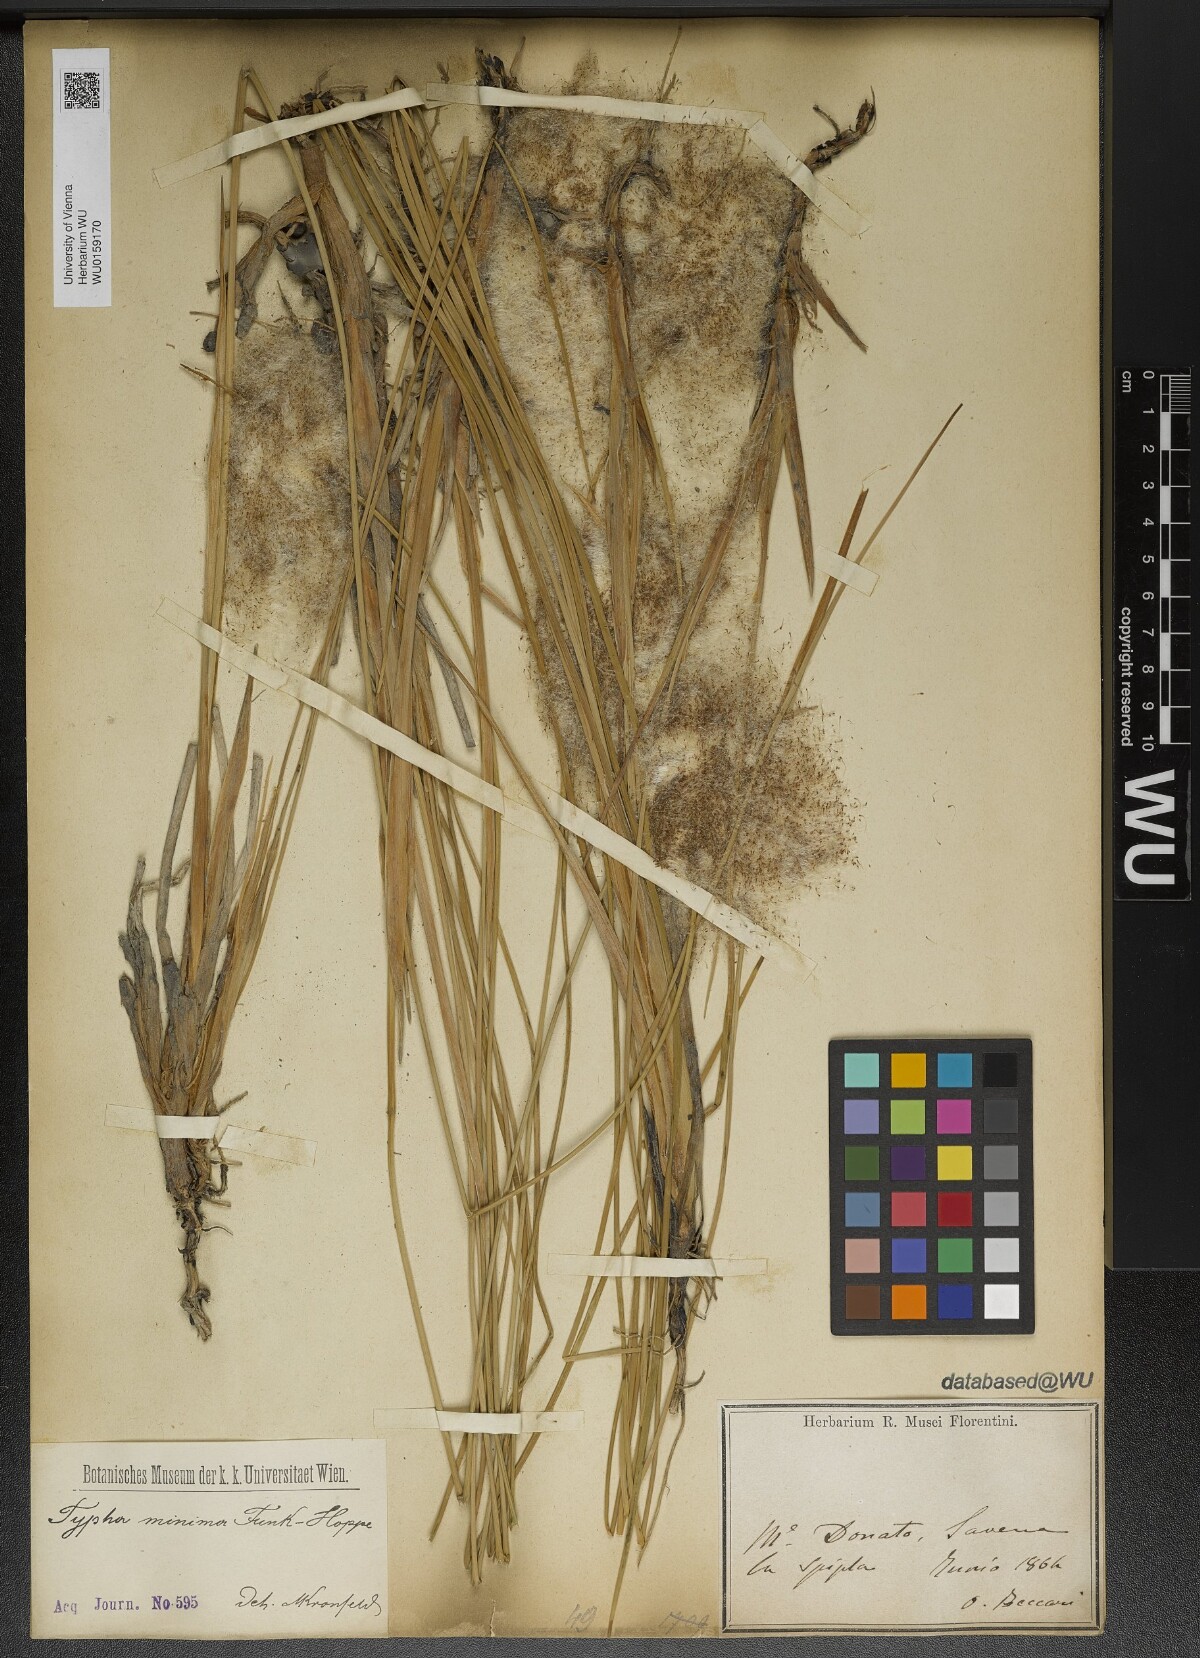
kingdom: Plantae
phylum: Tracheophyta
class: Liliopsida
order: Poales
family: Typhaceae
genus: Typha
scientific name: Typha minima
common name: Dwarf bulrush
